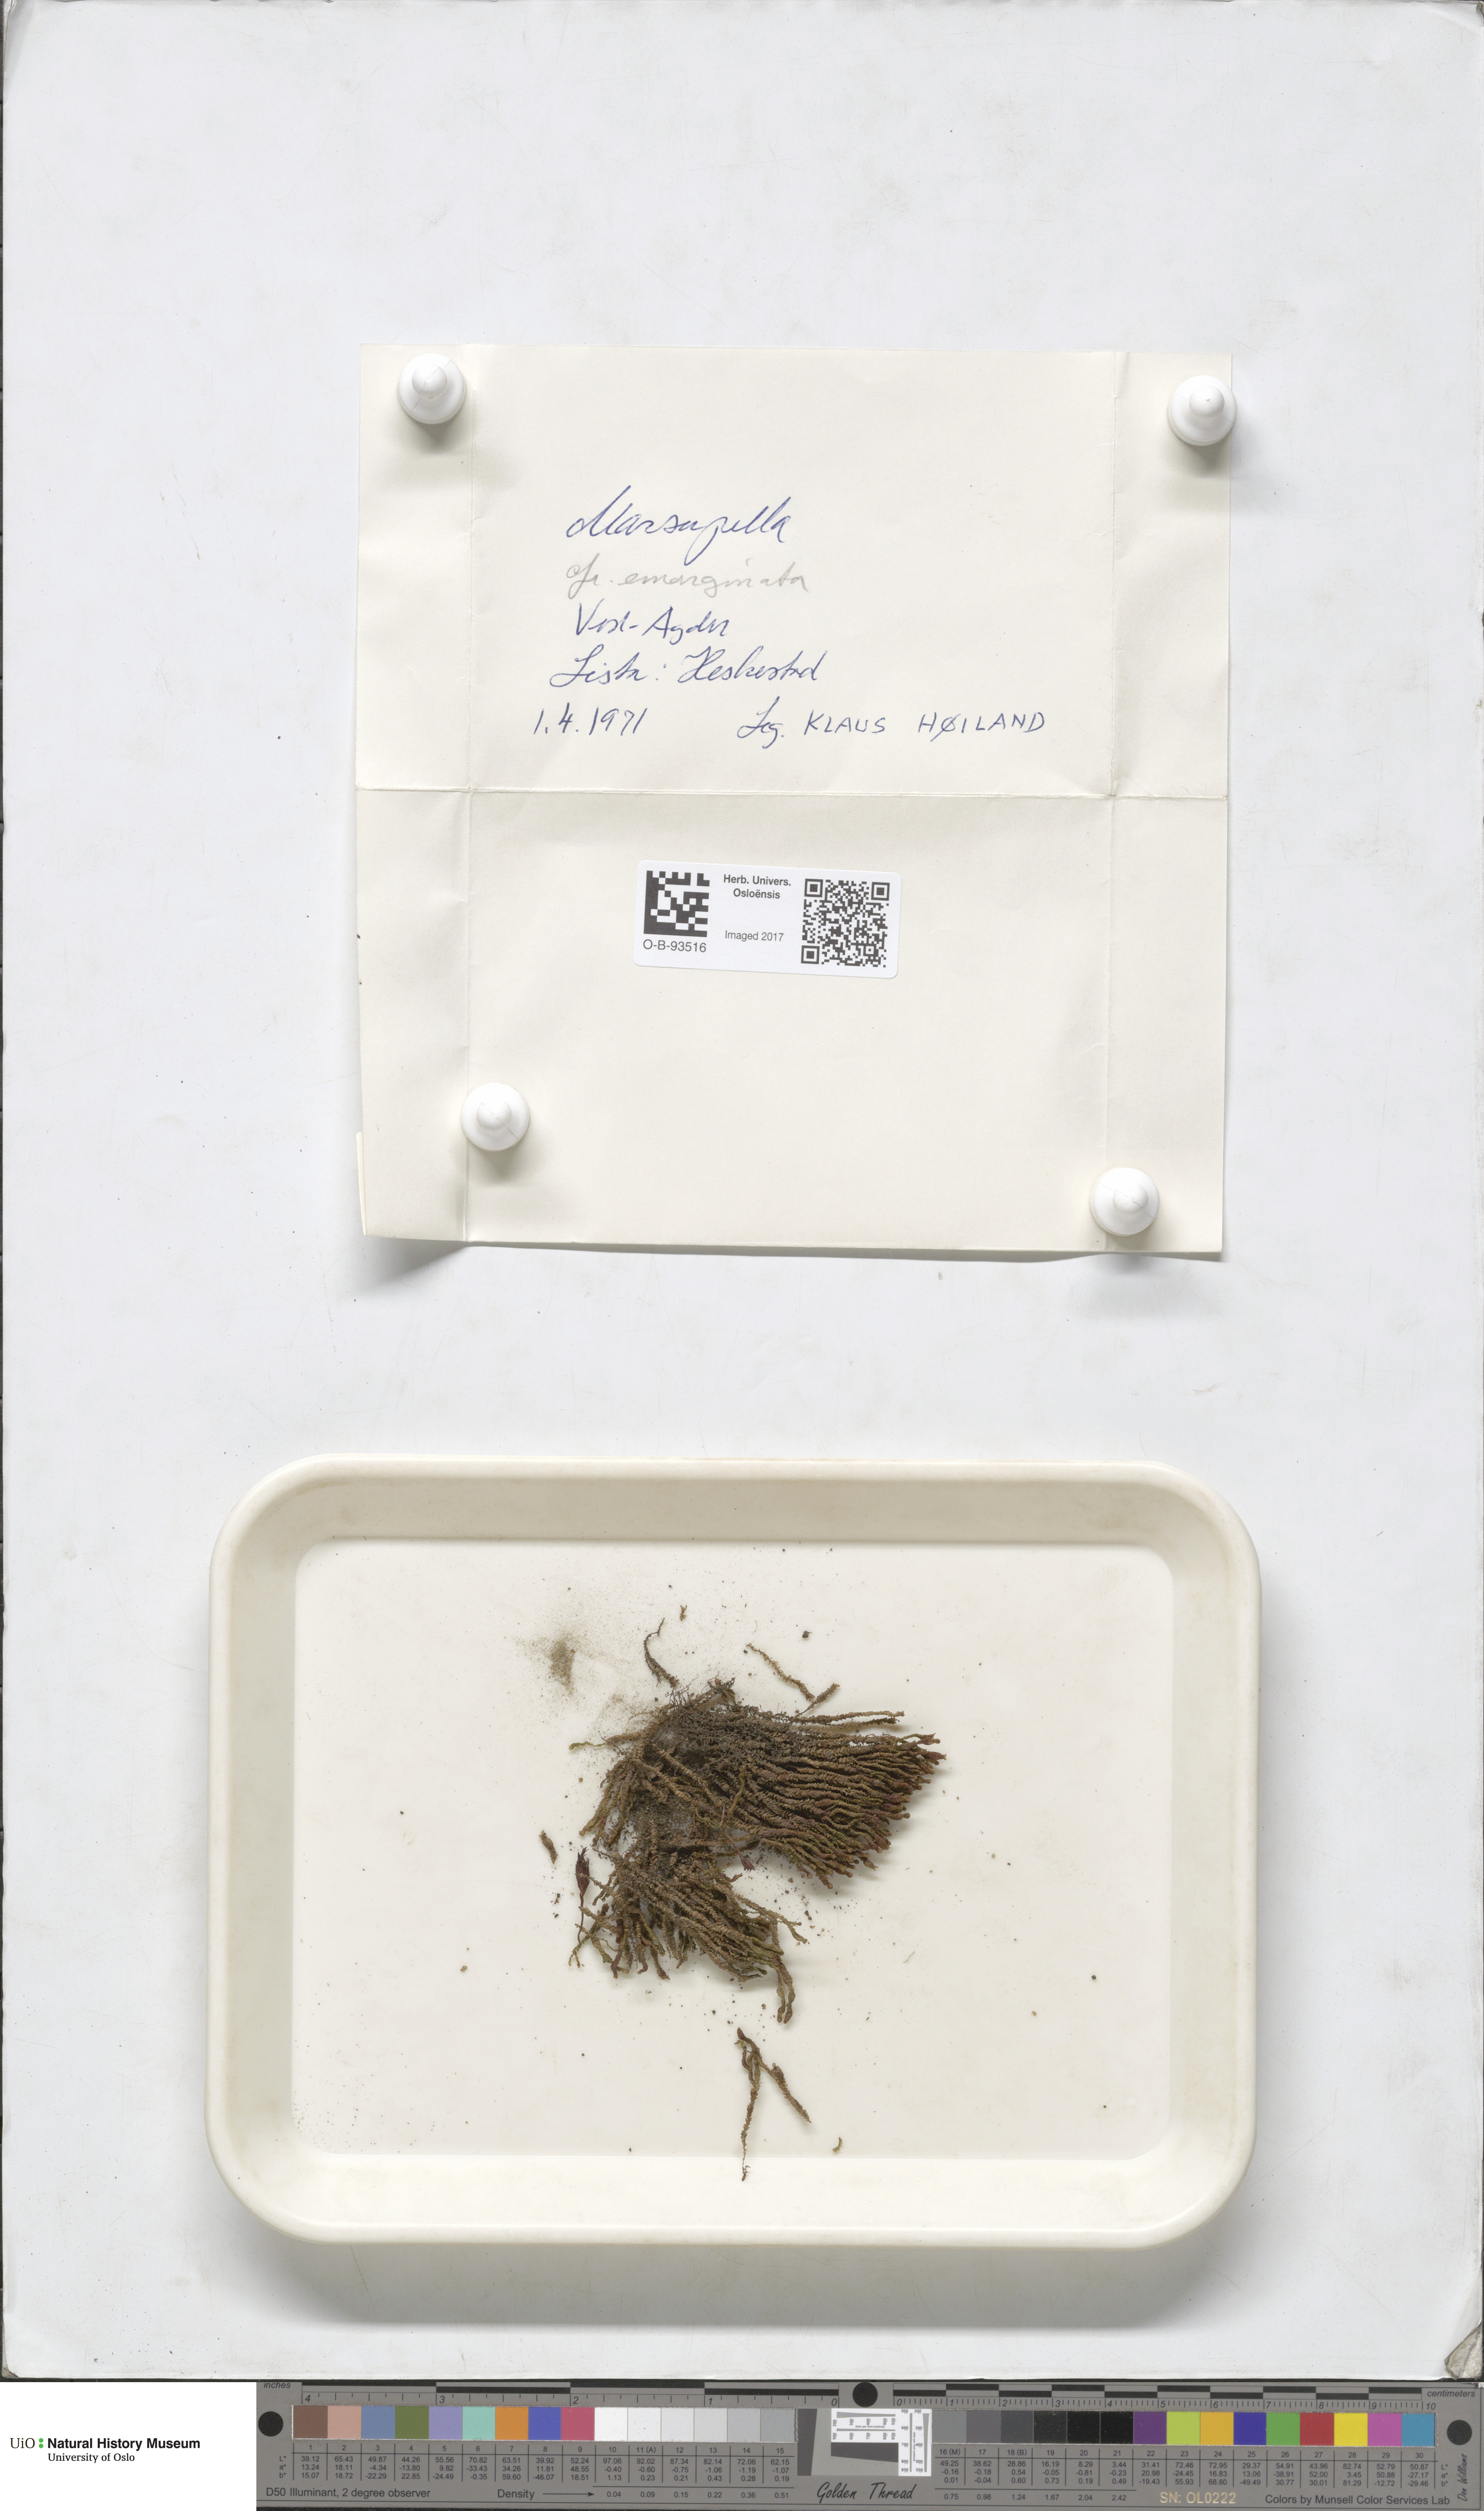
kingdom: Plantae
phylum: Marchantiophyta
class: Jungermanniopsida
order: Jungermanniales
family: Gymnomitriaceae
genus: Marsupella
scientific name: Marsupella emarginata
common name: Notched rustwort
